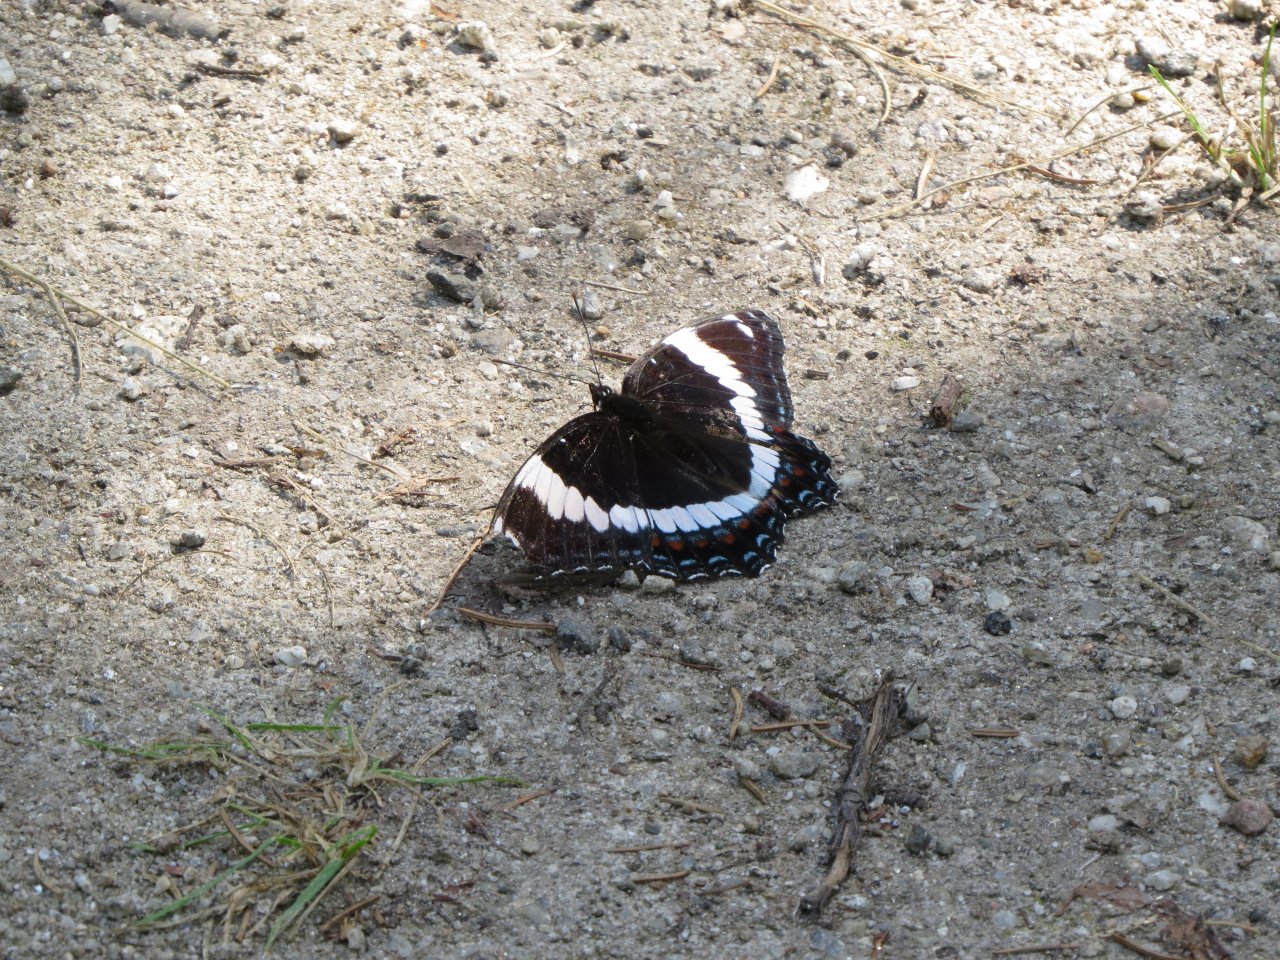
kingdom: Animalia
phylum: Arthropoda
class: Insecta
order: Lepidoptera
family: Nymphalidae
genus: Limenitis
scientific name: Limenitis arthemis
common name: Red-spotted Admiral
